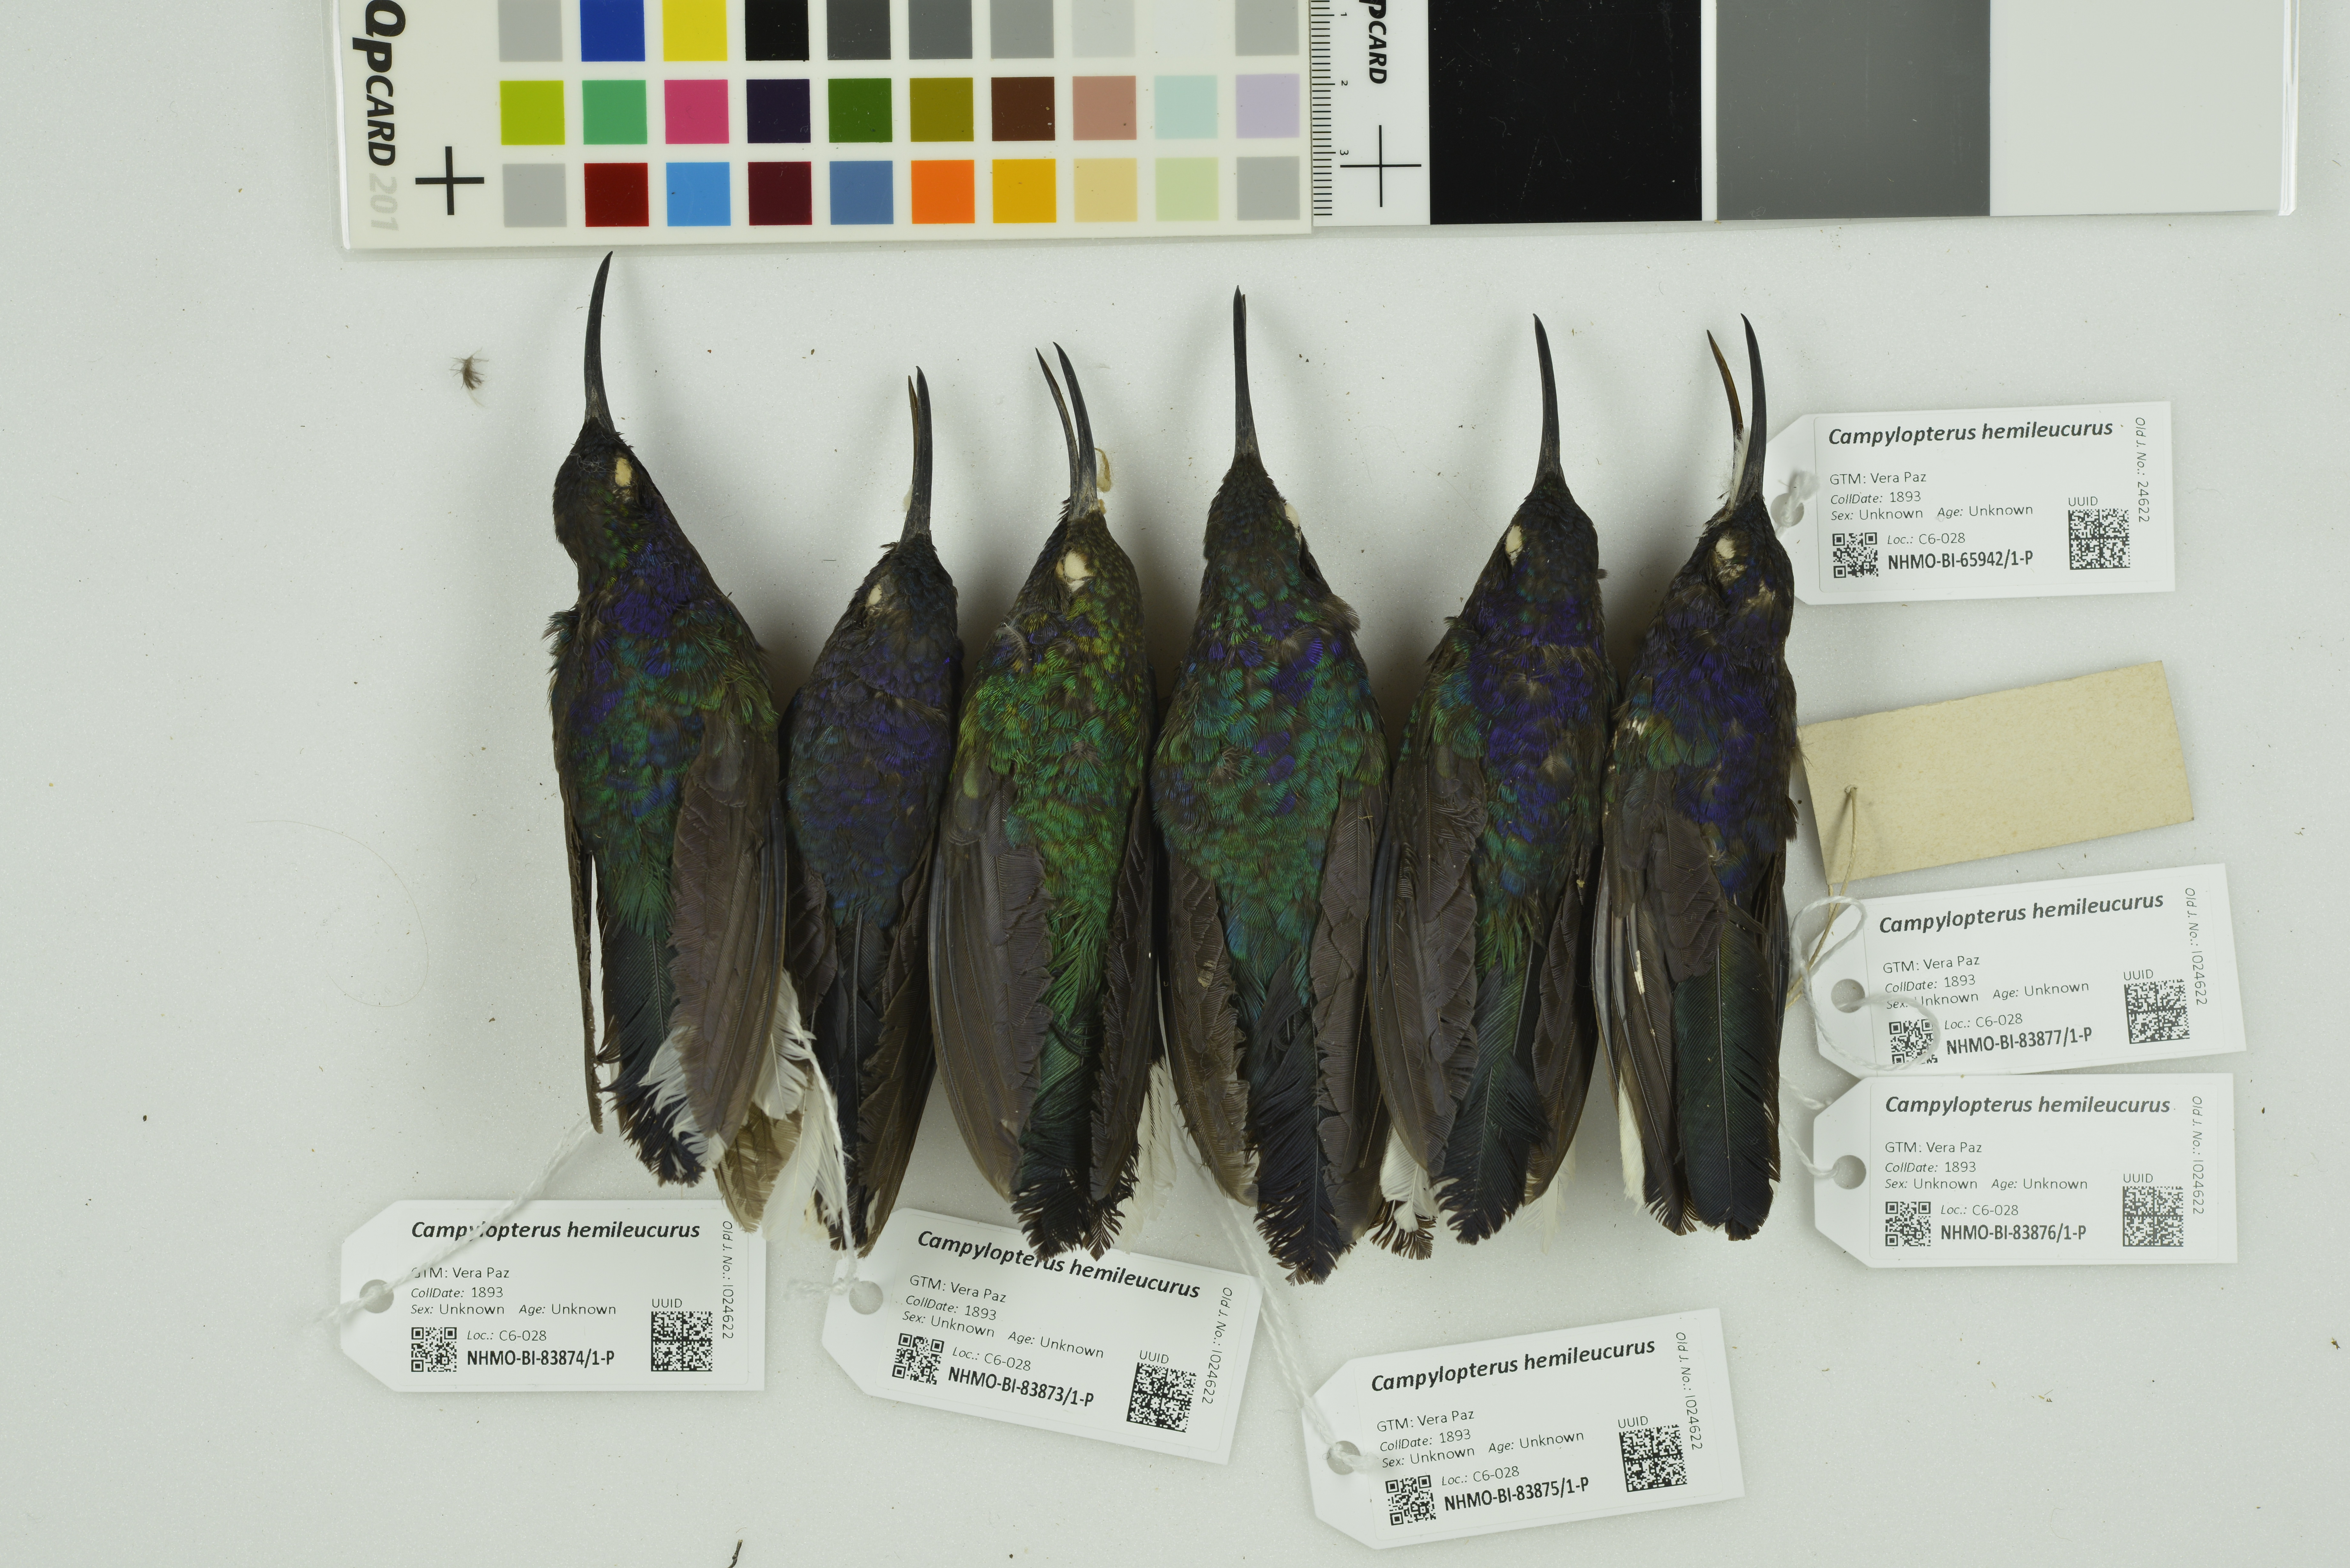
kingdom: Animalia
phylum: Chordata
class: Aves
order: Apodiformes
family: Trochilidae
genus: Campylopterus
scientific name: Campylopterus hemileucurus
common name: Violet sabrewing
